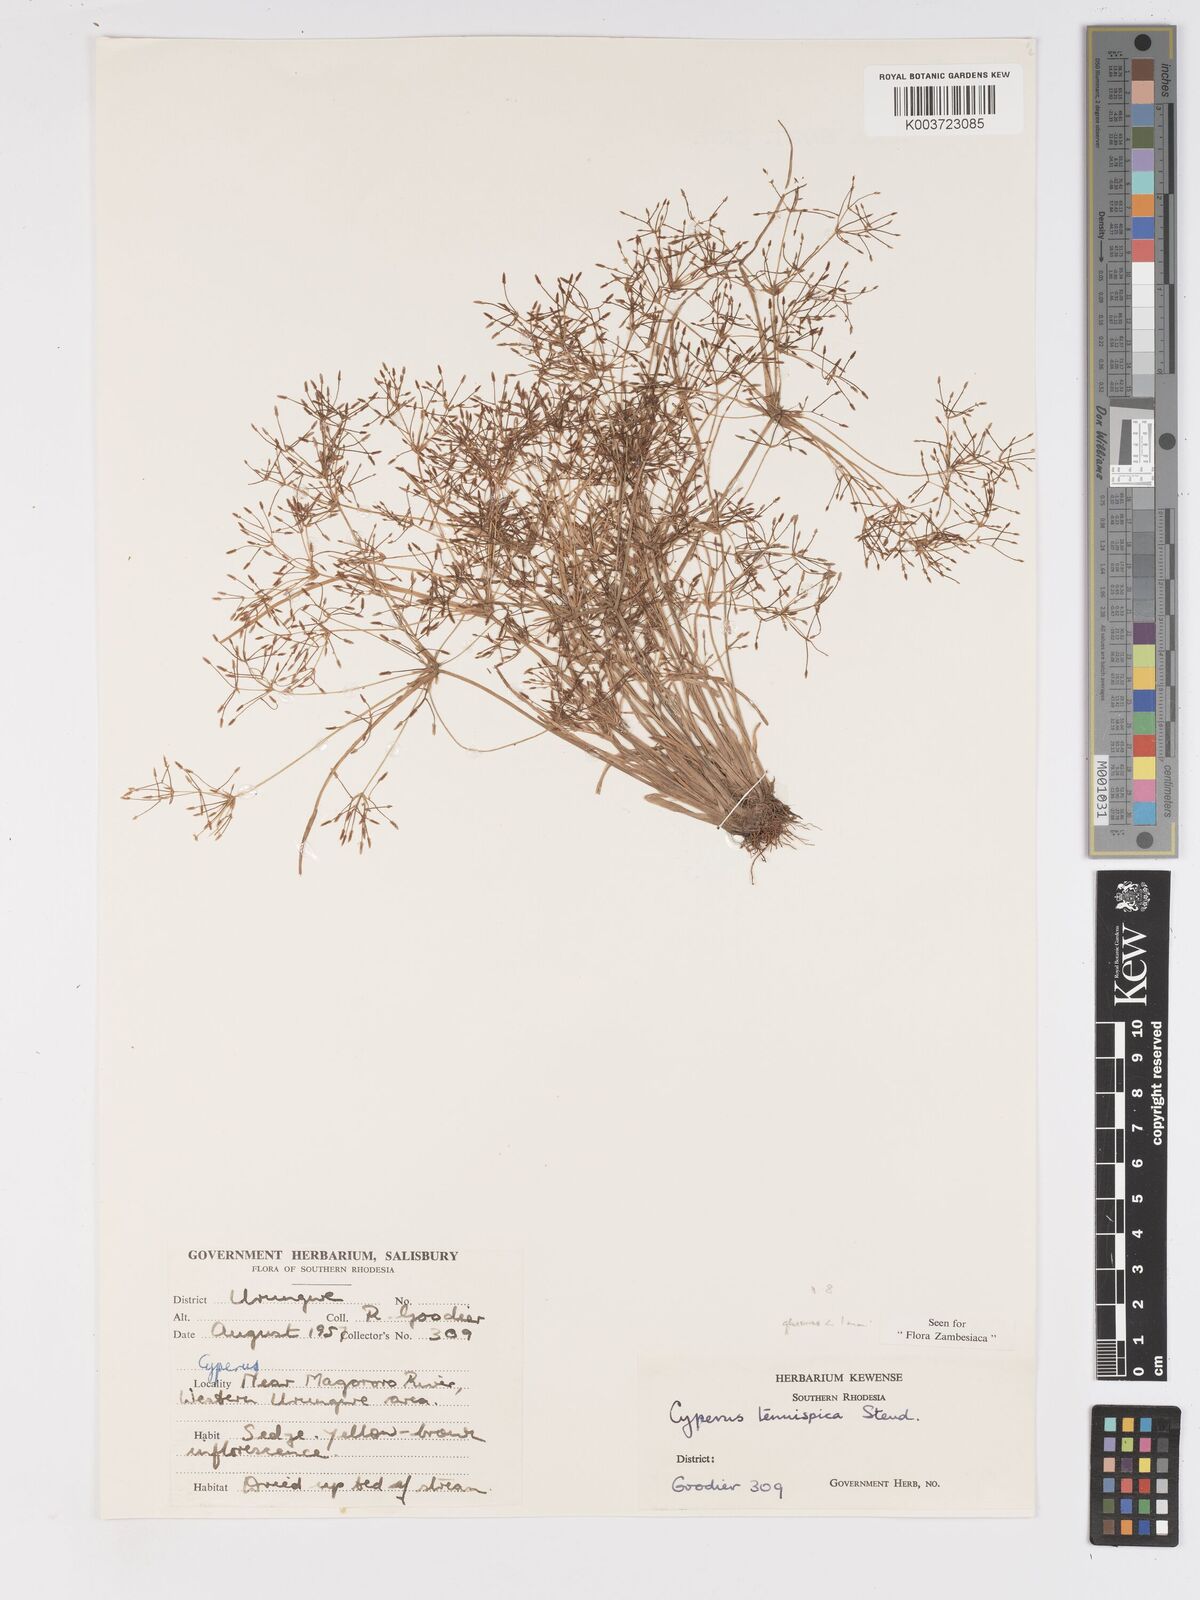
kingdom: Plantae
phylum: Tracheophyta
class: Liliopsida
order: Poales
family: Cyperaceae
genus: Cyperus
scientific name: Cyperus tenuispica
